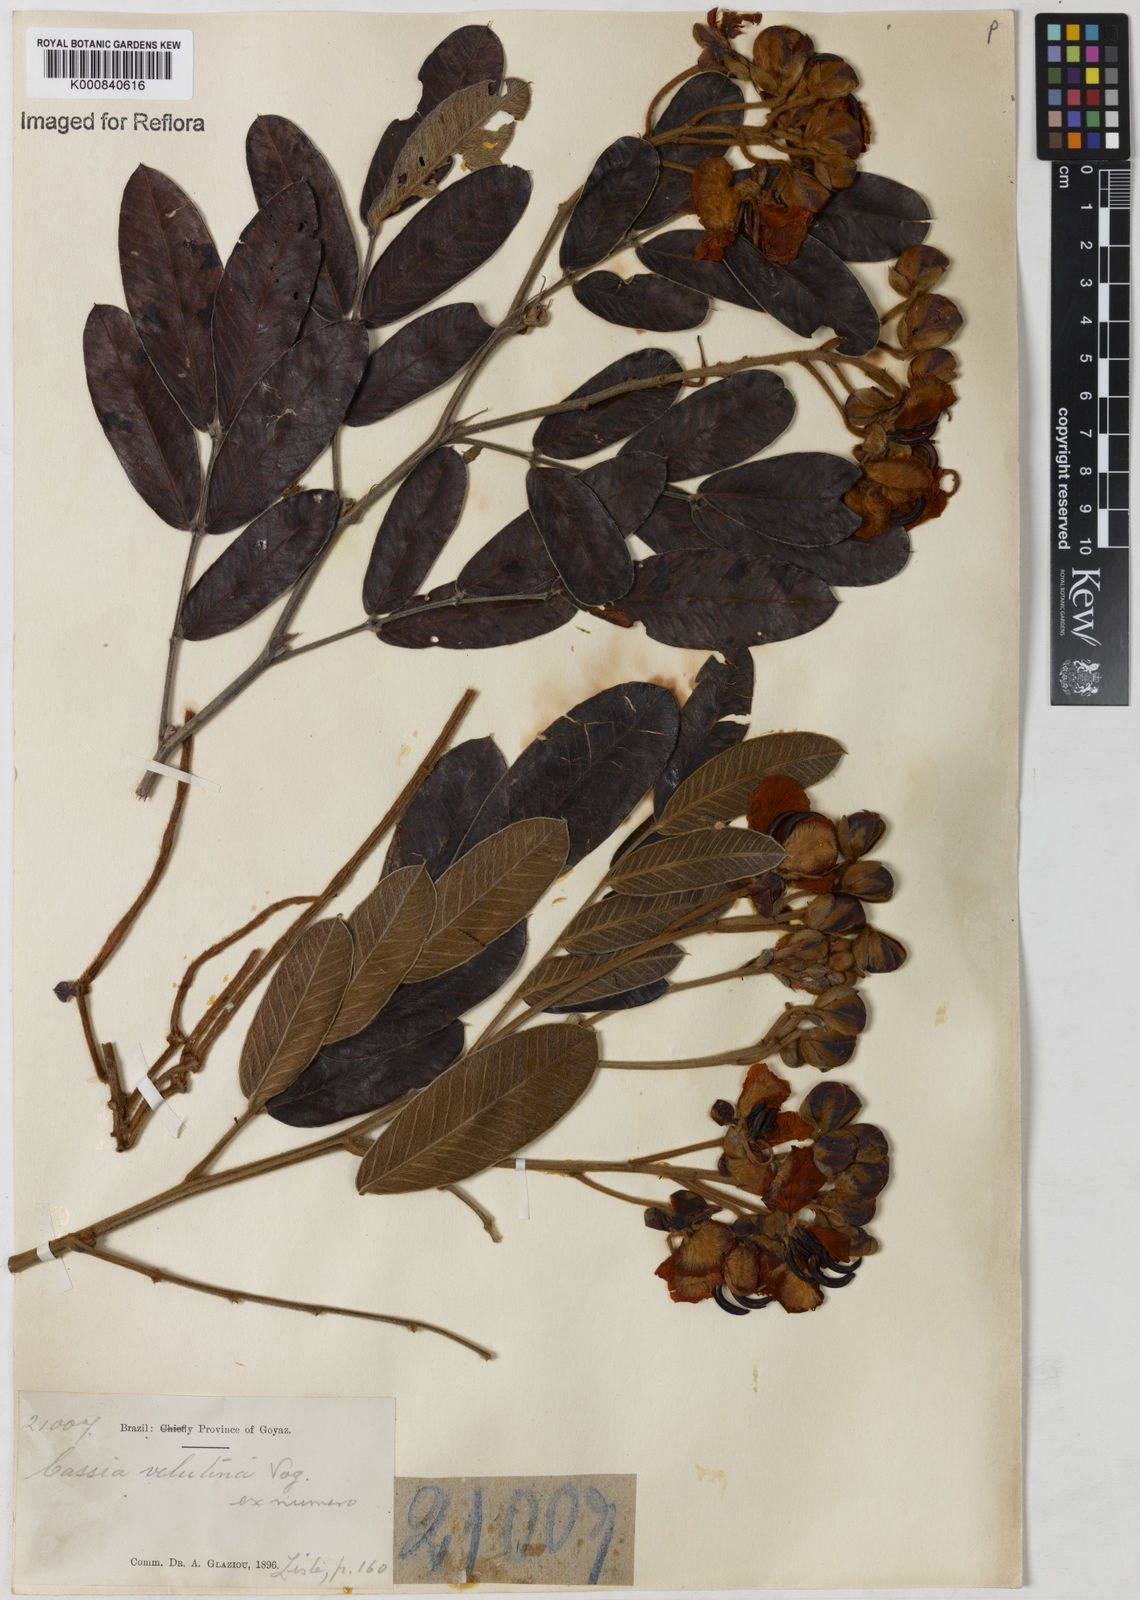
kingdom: Plantae
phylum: Tracheophyta
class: Magnoliopsida
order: Fabales
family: Fabaceae
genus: Senna
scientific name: Senna velutina
